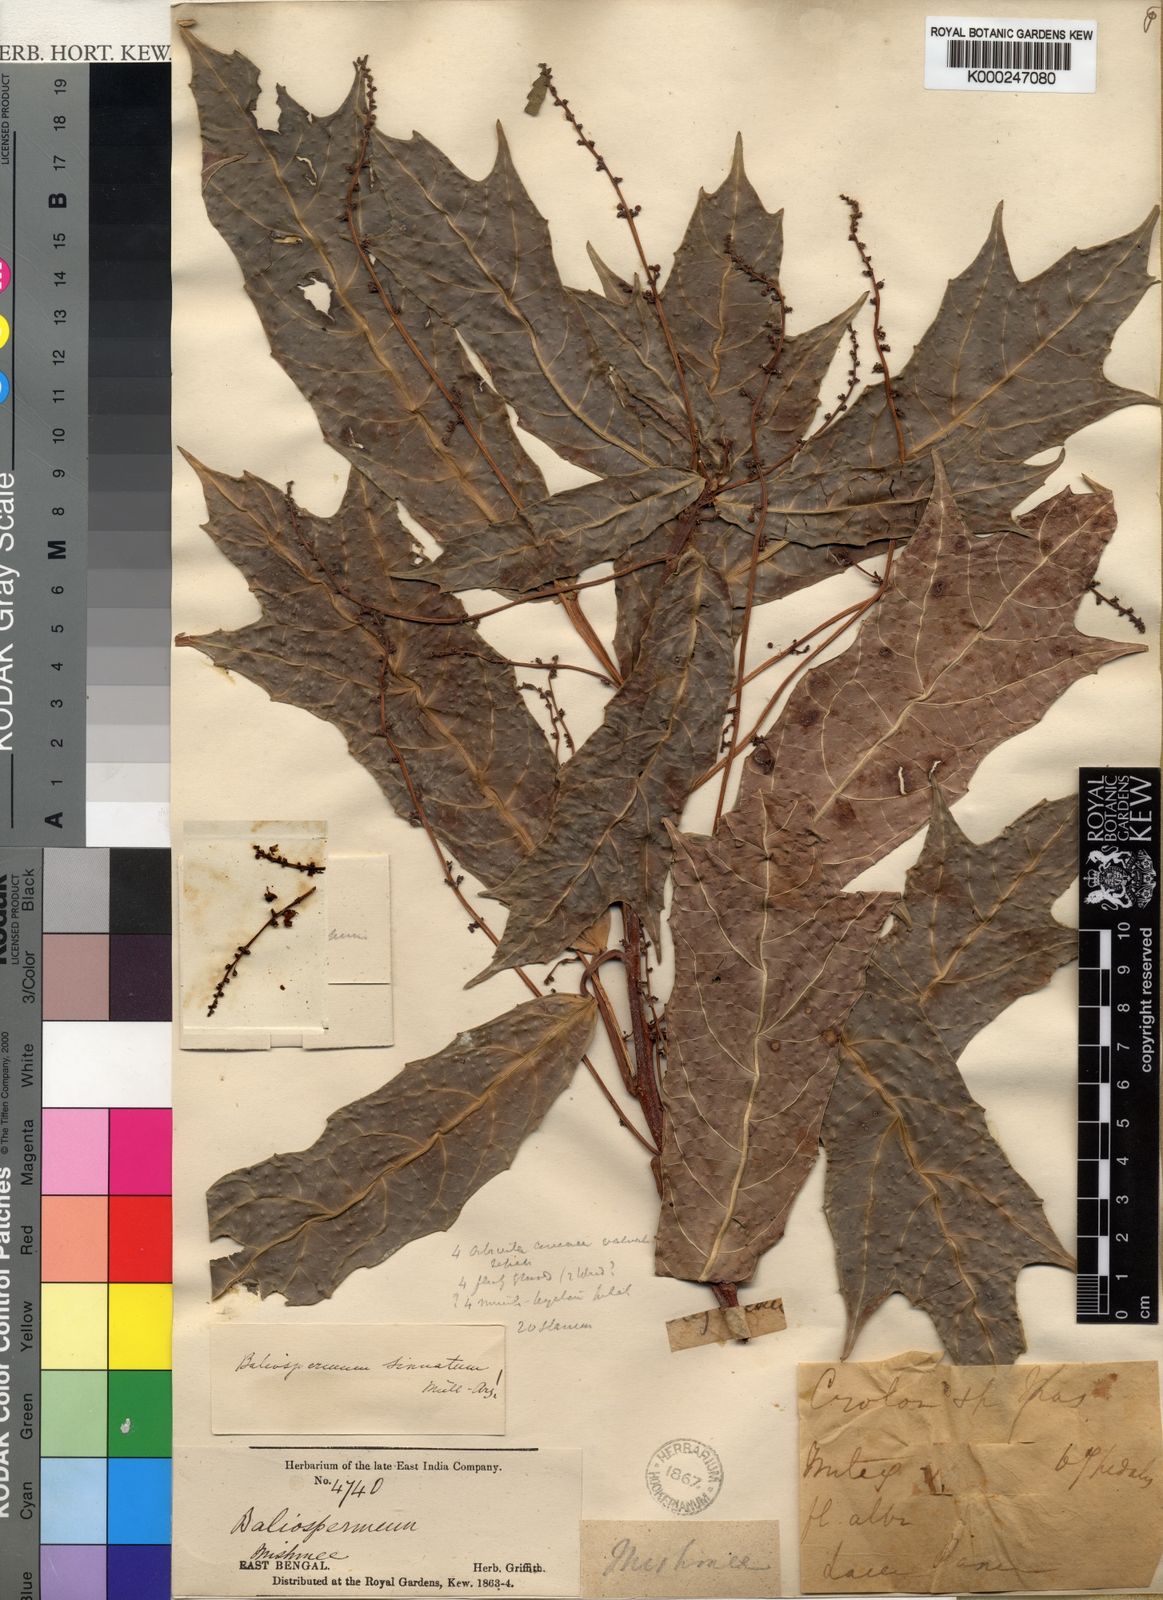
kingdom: Plantae
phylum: Tracheophyta
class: Magnoliopsida
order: Malpighiales
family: Euphorbiaceae
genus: Baliospermum
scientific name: Baliospermum
